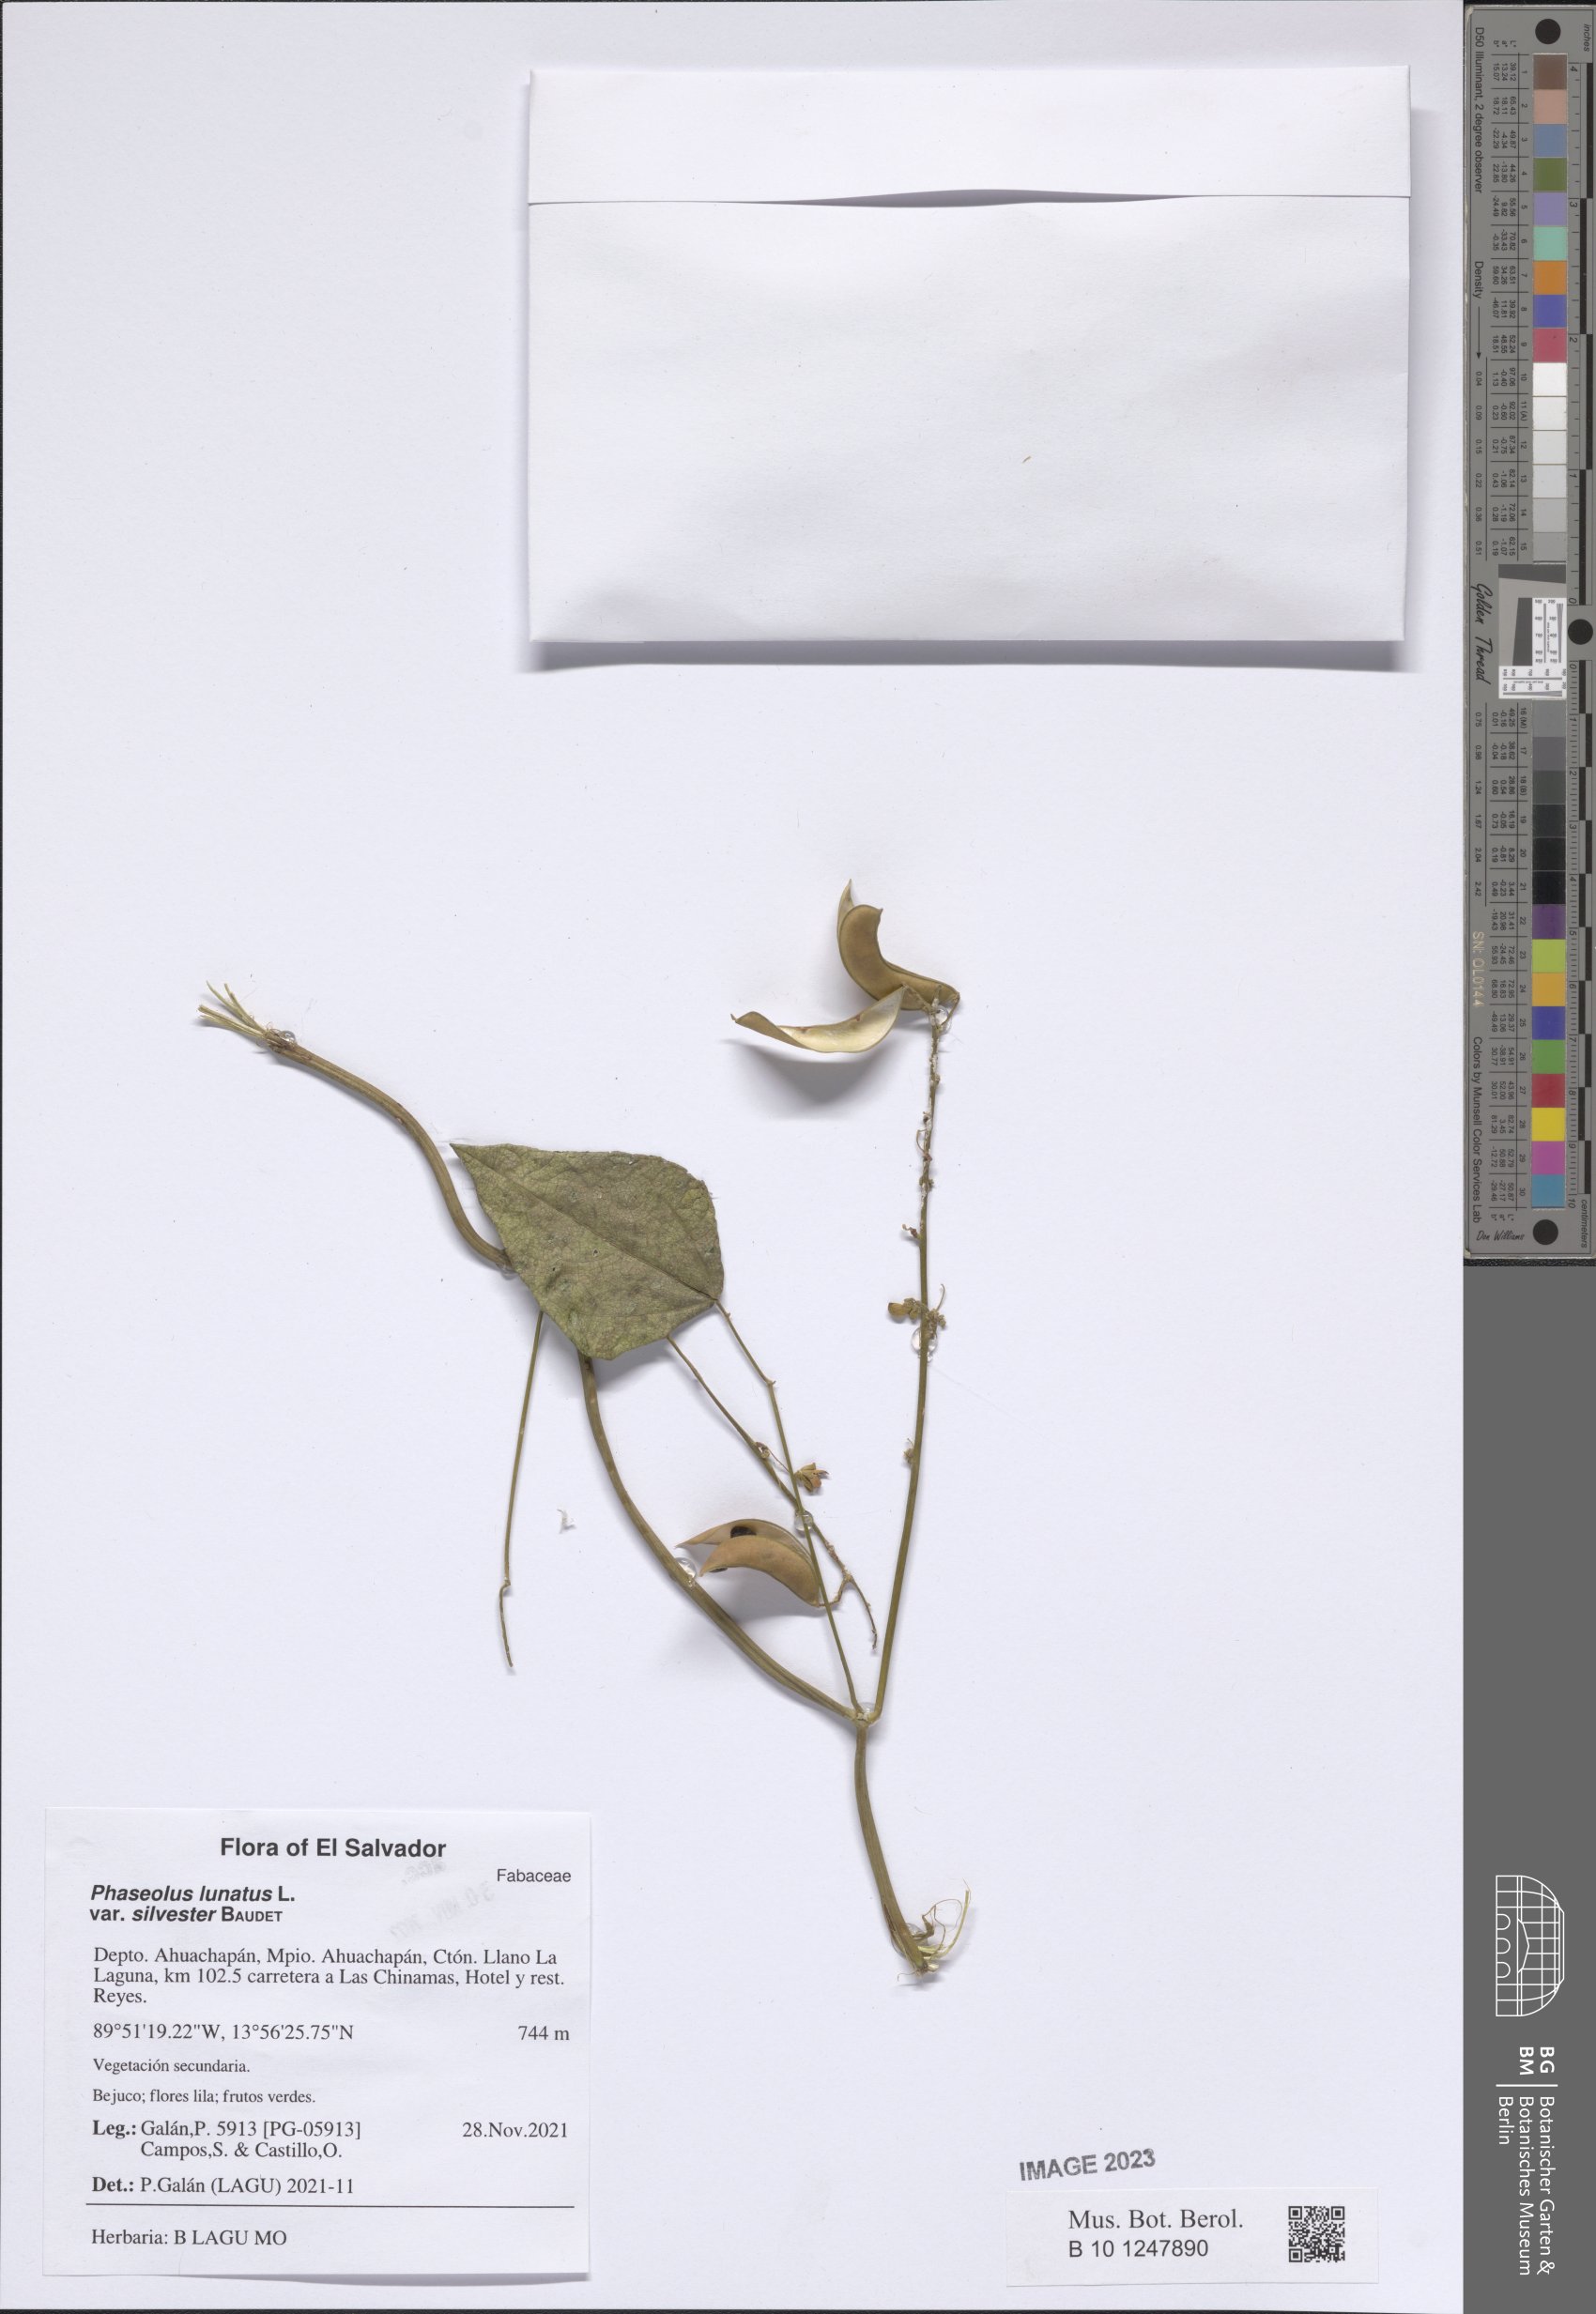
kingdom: Plantae
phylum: Tracheophyta
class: Magnoliopsida
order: Fabales
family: Fabaceae
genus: Phaseolus
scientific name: Phaseolus lunatus
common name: Sieva bean
